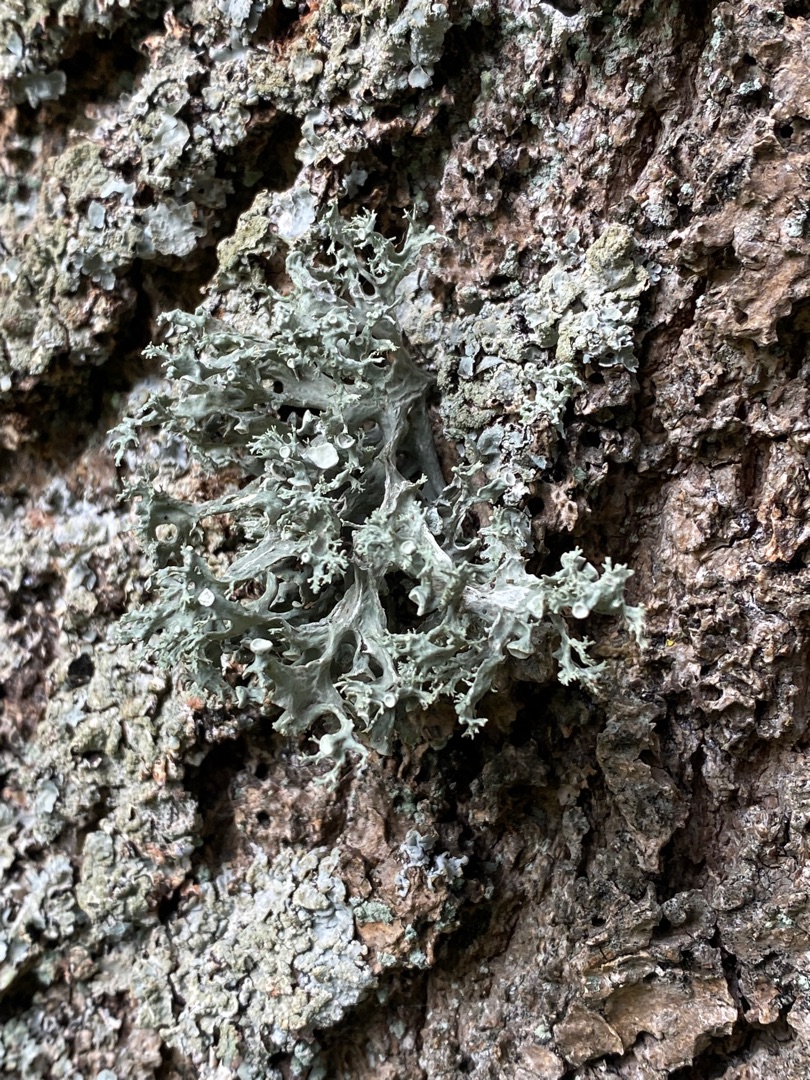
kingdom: Fungi
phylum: Ascomycota
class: Lecanoromycetes
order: Lecanorales
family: Ramalinaceae
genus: Ramalina
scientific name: Ramalina fastigiata
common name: Tue-grenlav
